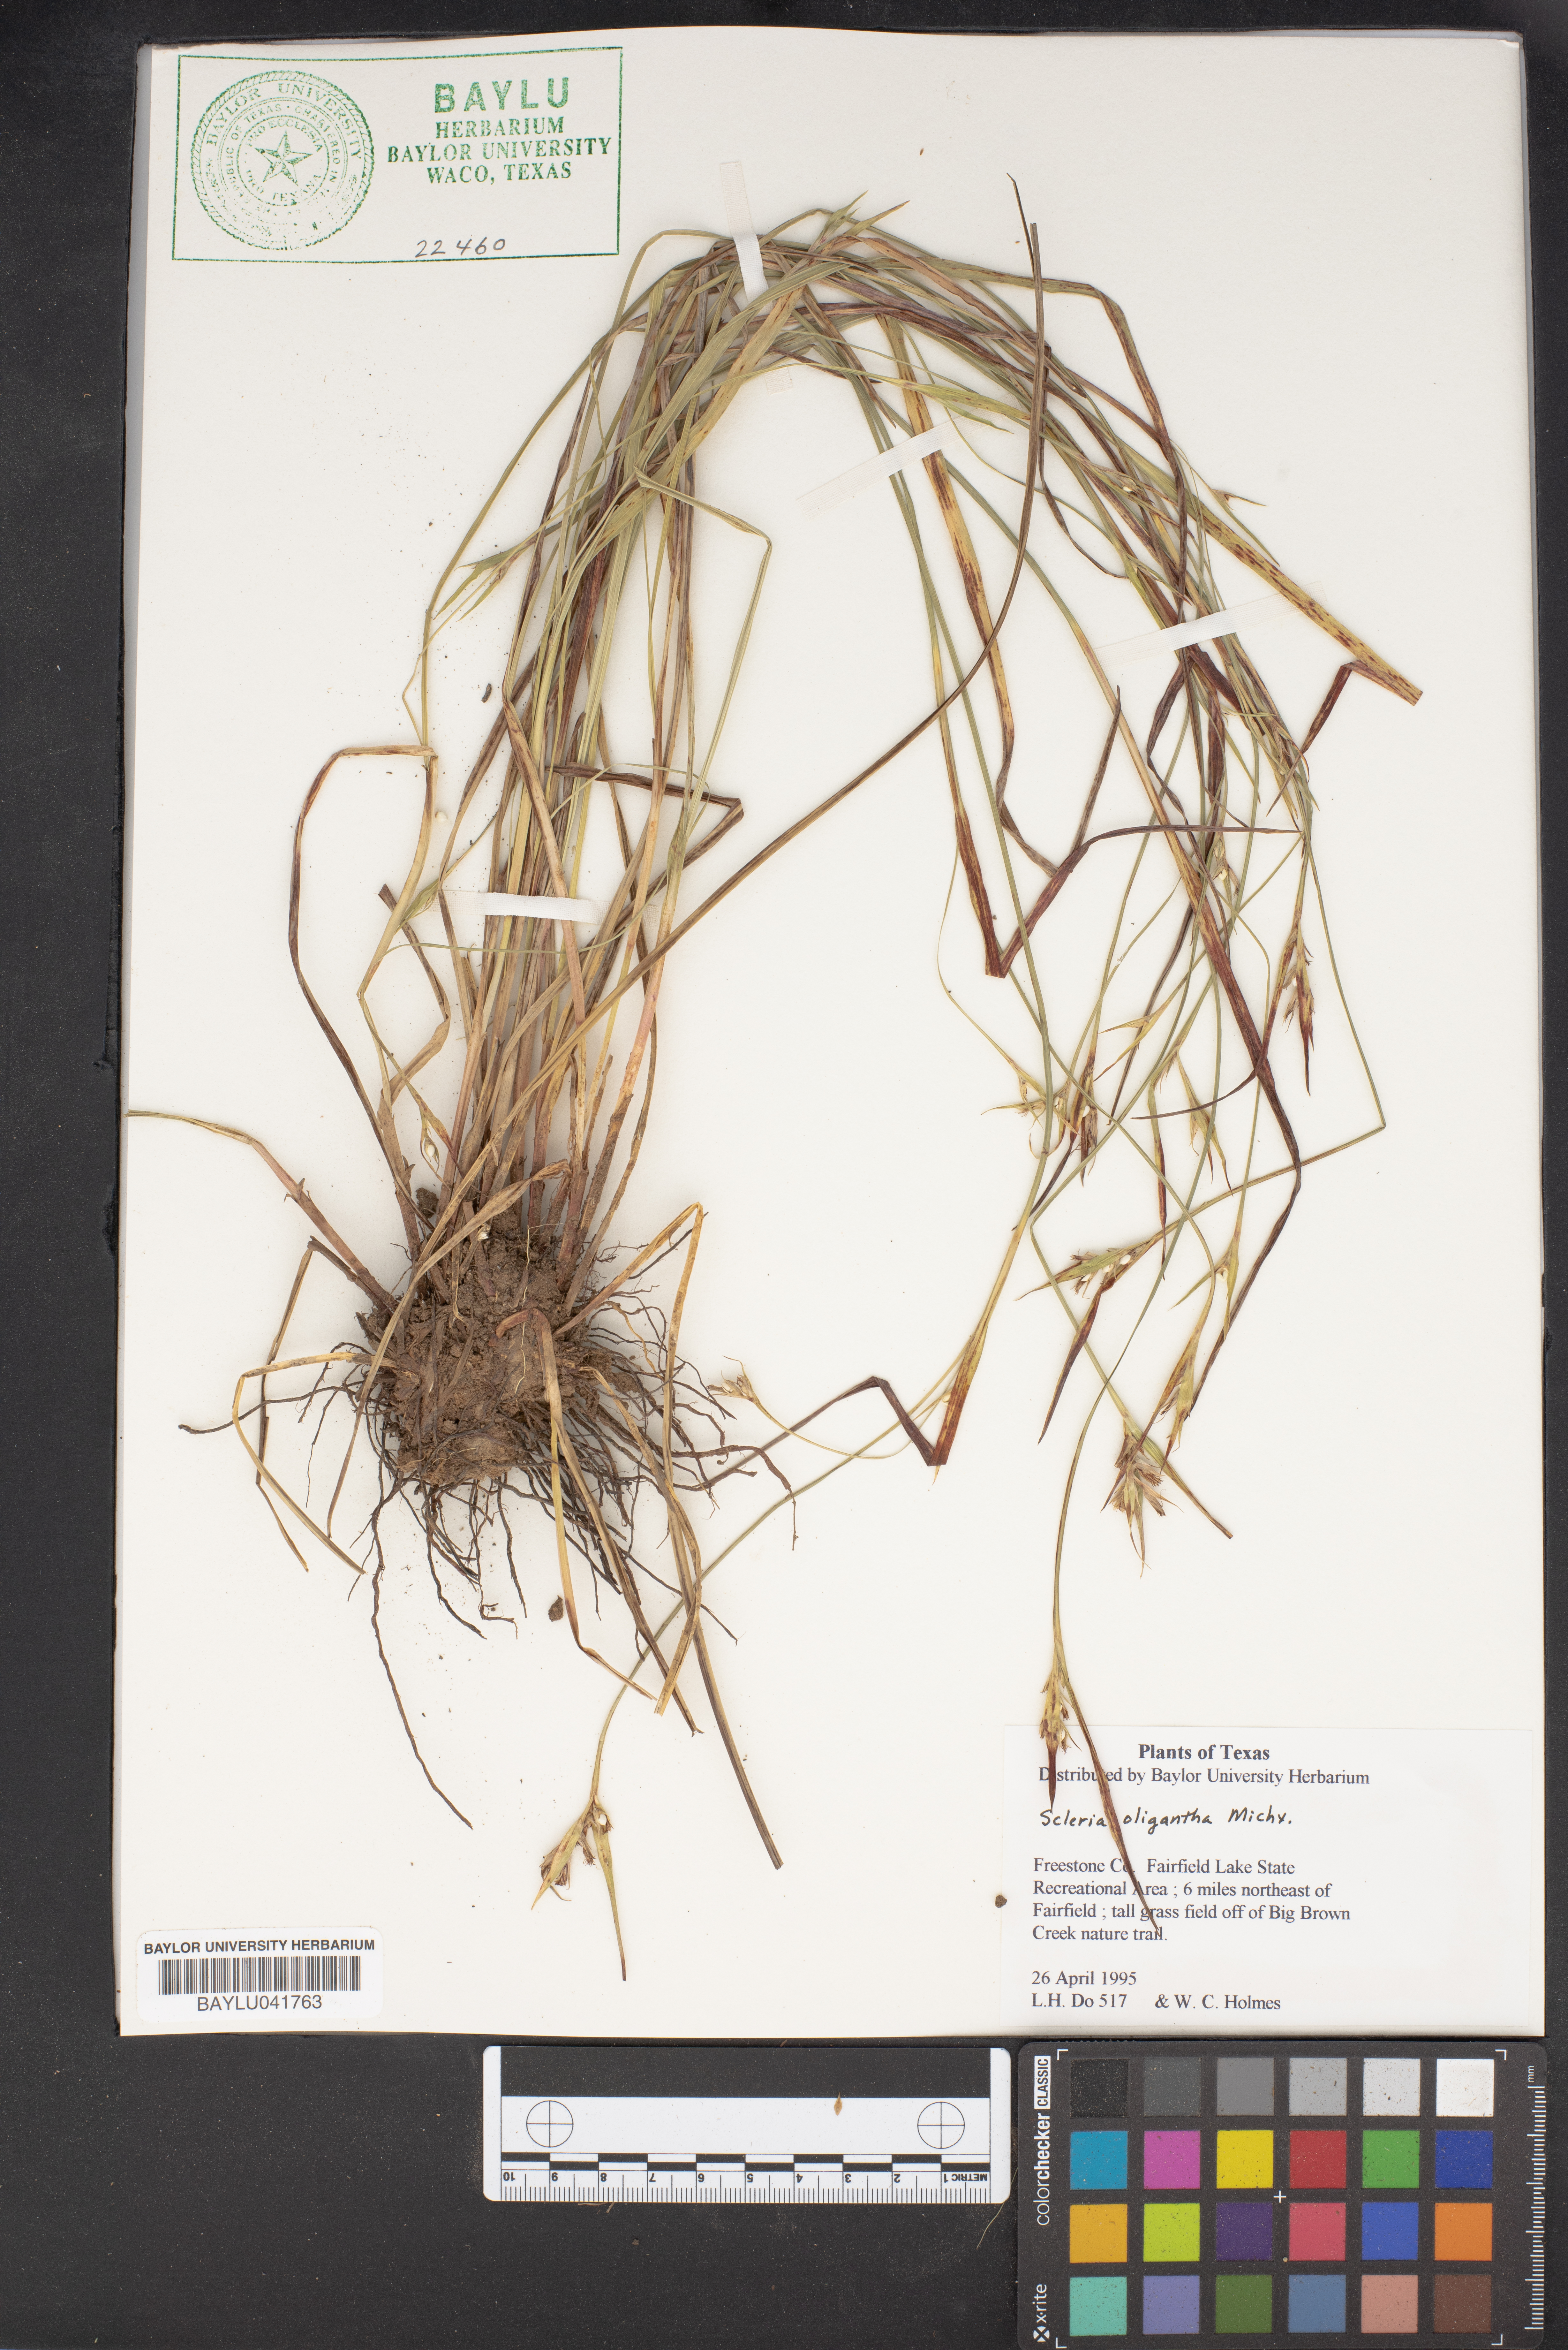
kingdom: Plantae
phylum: Tracheophyta
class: Liliopsida
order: Poales
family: Cyperaceae
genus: Scleria
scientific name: Scleria oligantha
